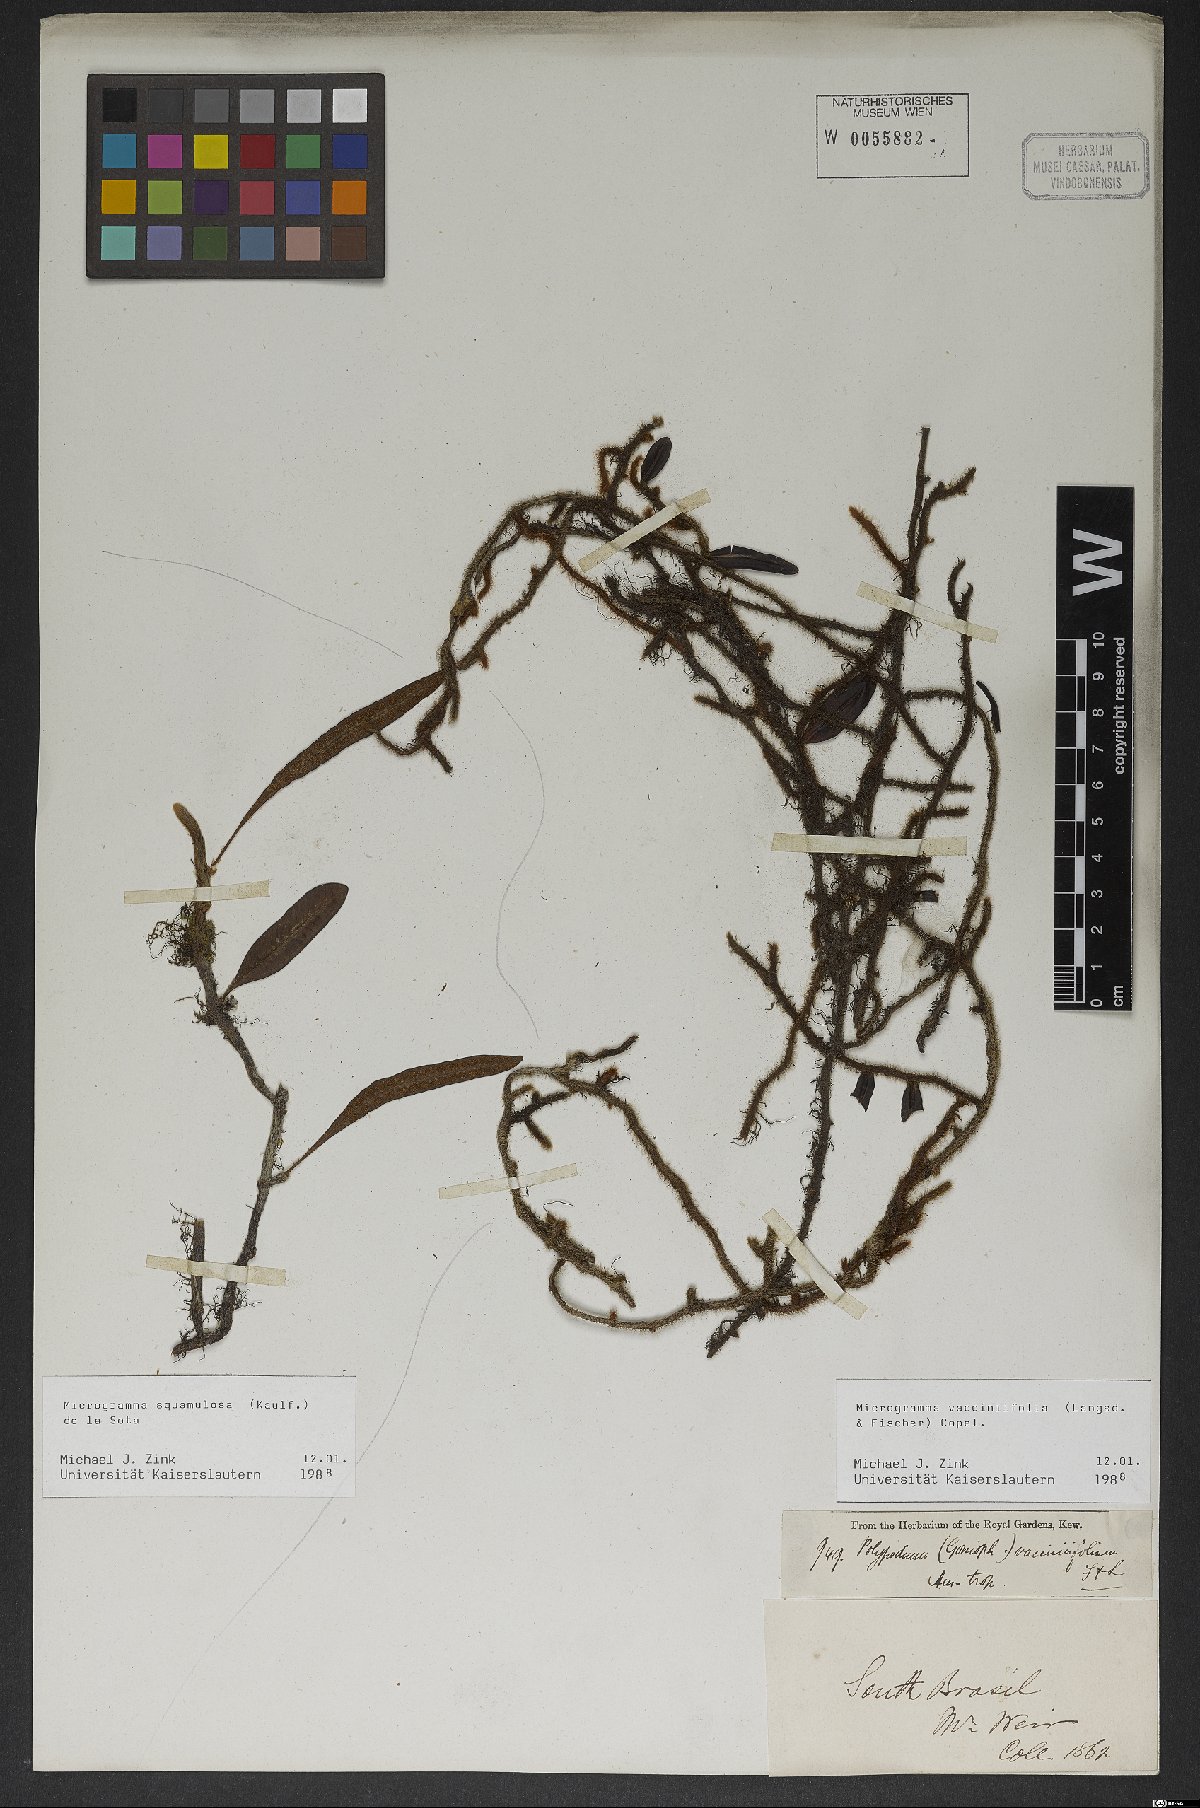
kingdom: Plantae
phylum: Tracheophyta
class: Polypodiopsida
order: Polypodiales
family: Polypodiaceae
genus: Microgramma
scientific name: Microgramma vaccinifolia
